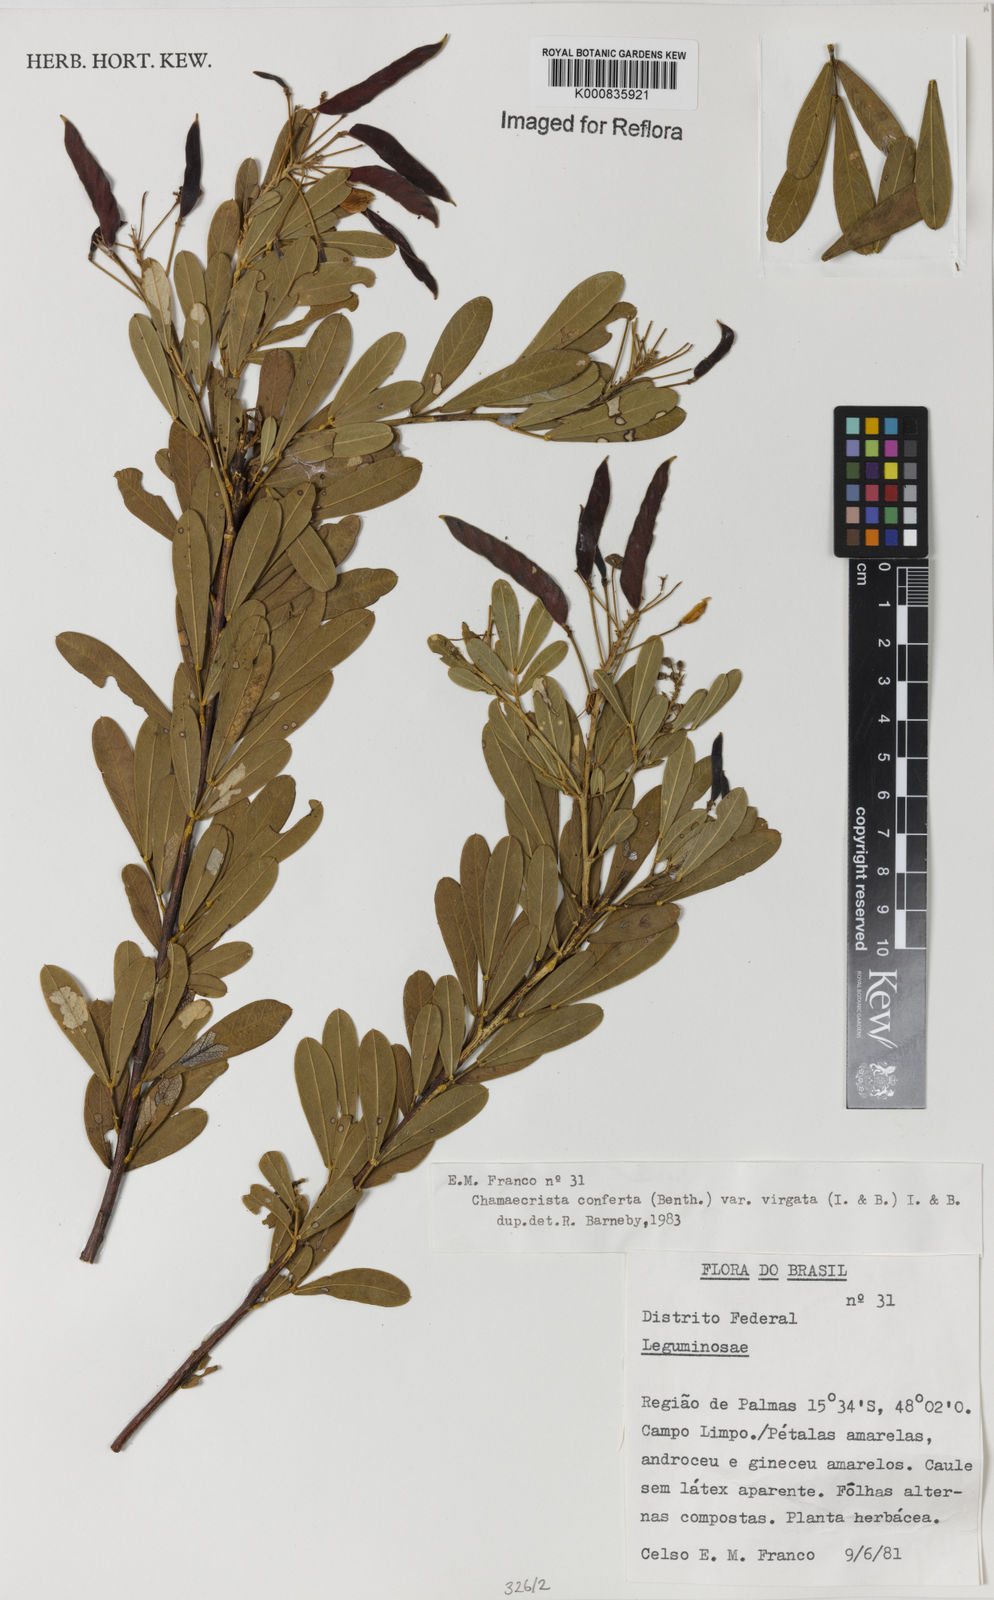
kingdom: Plantae
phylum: Tracheophyta
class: Magnoliopsida
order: Fabales
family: Fabaceae
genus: Chamaecrista
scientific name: Chamaecrista conferta
